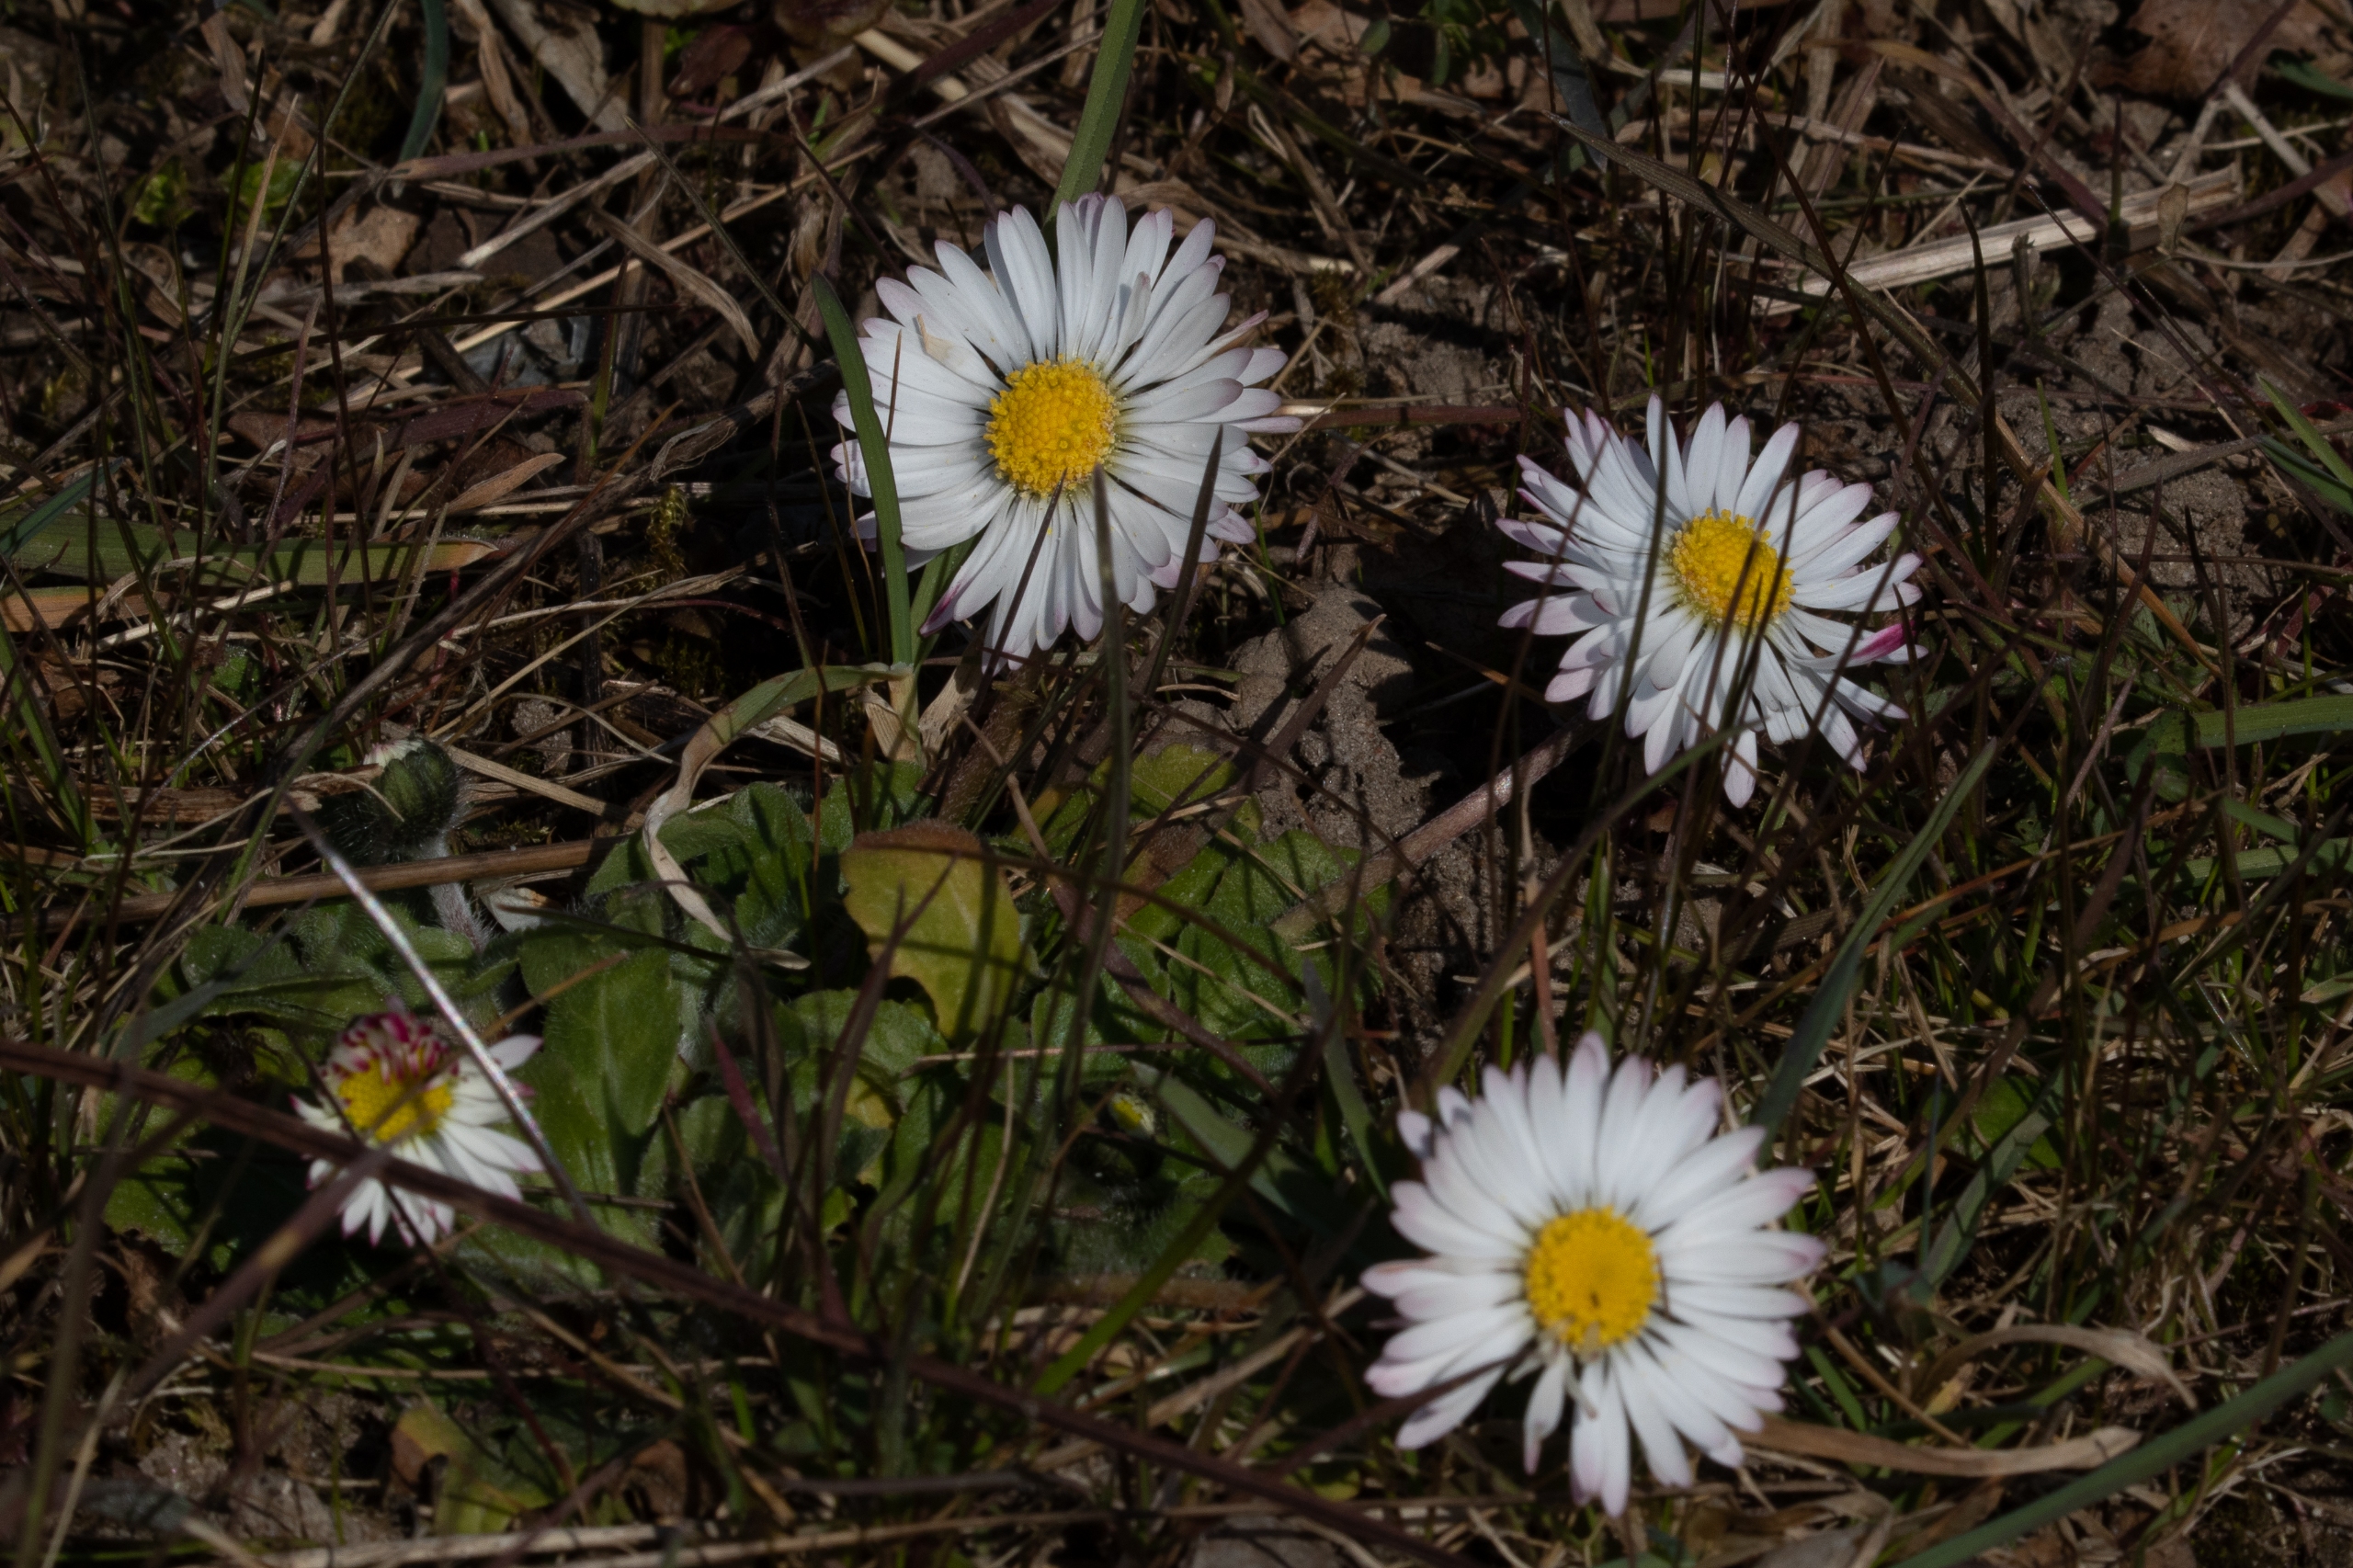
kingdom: Plantae
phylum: Tracheophyta
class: Magnoliopsida
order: Asterales
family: Asteraceae
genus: Bellis
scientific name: Bellis perennis
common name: Tusindfryd
